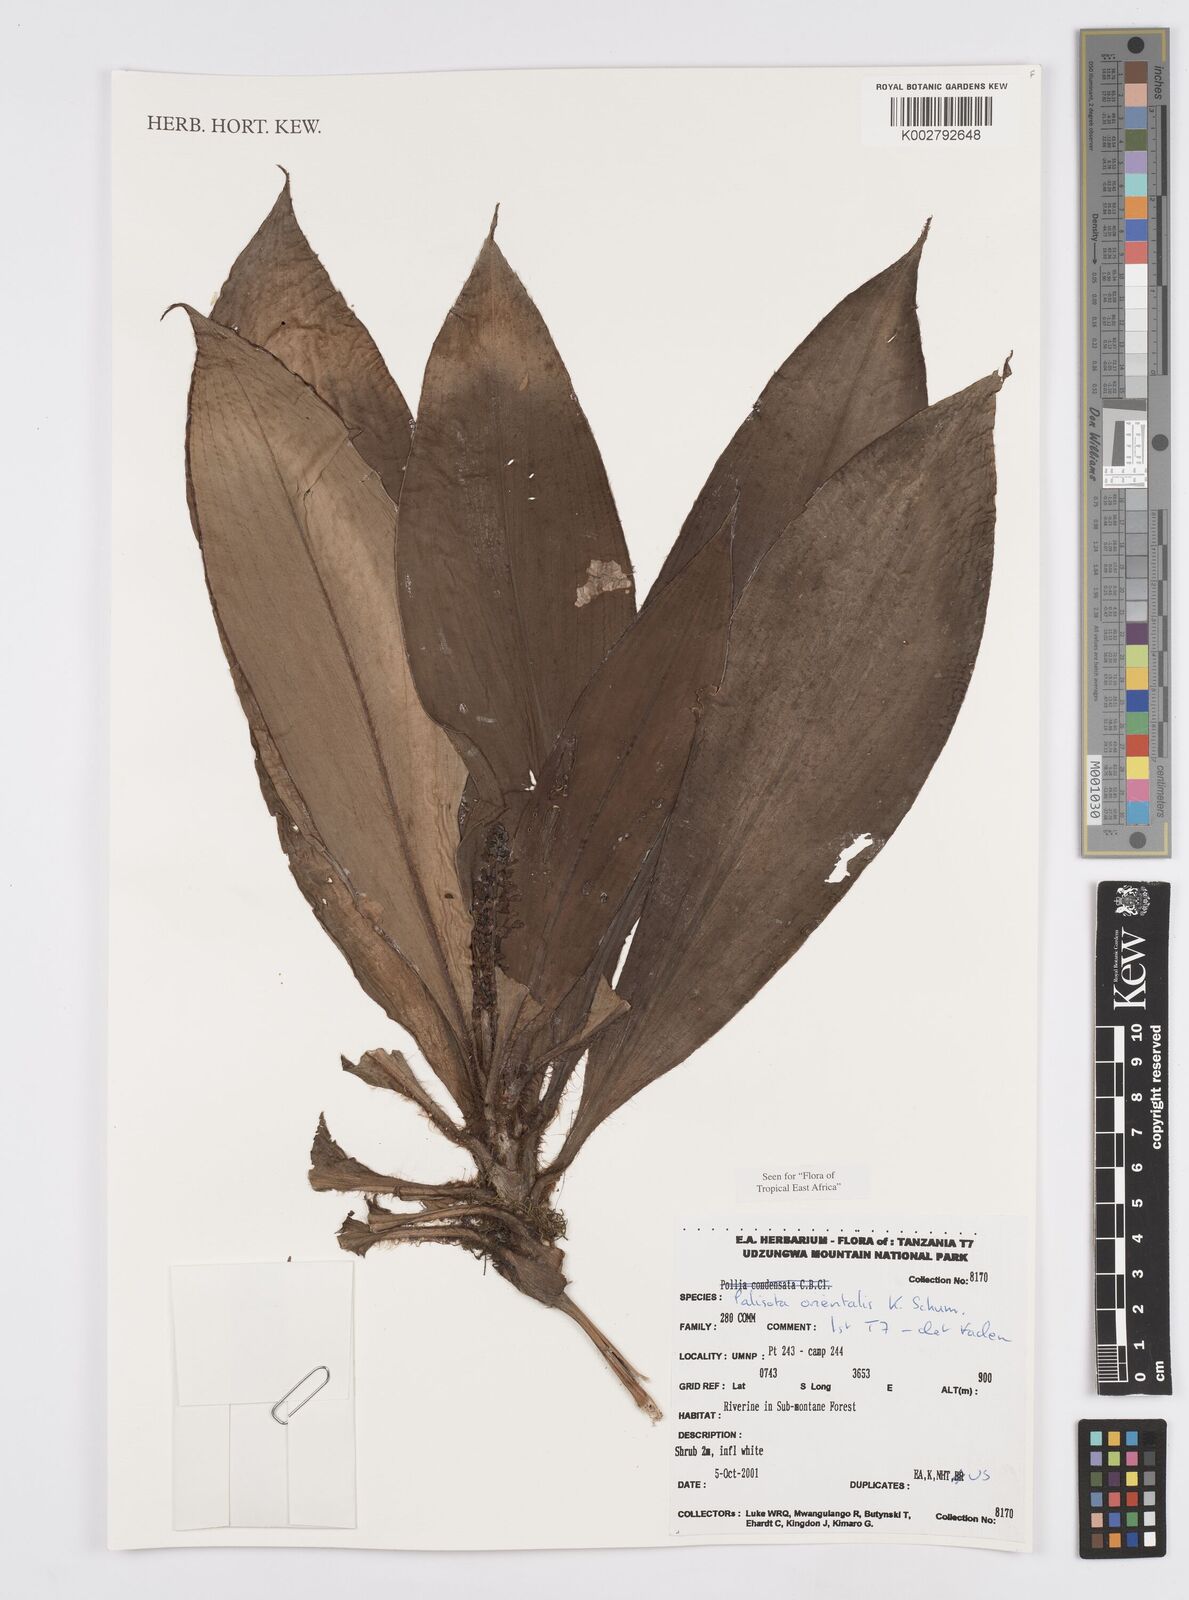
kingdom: Plantae
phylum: Tracheophyta
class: Liliopsida
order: Commelinales
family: Commelinaceae
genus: Palisota
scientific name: Palisota orientalis
